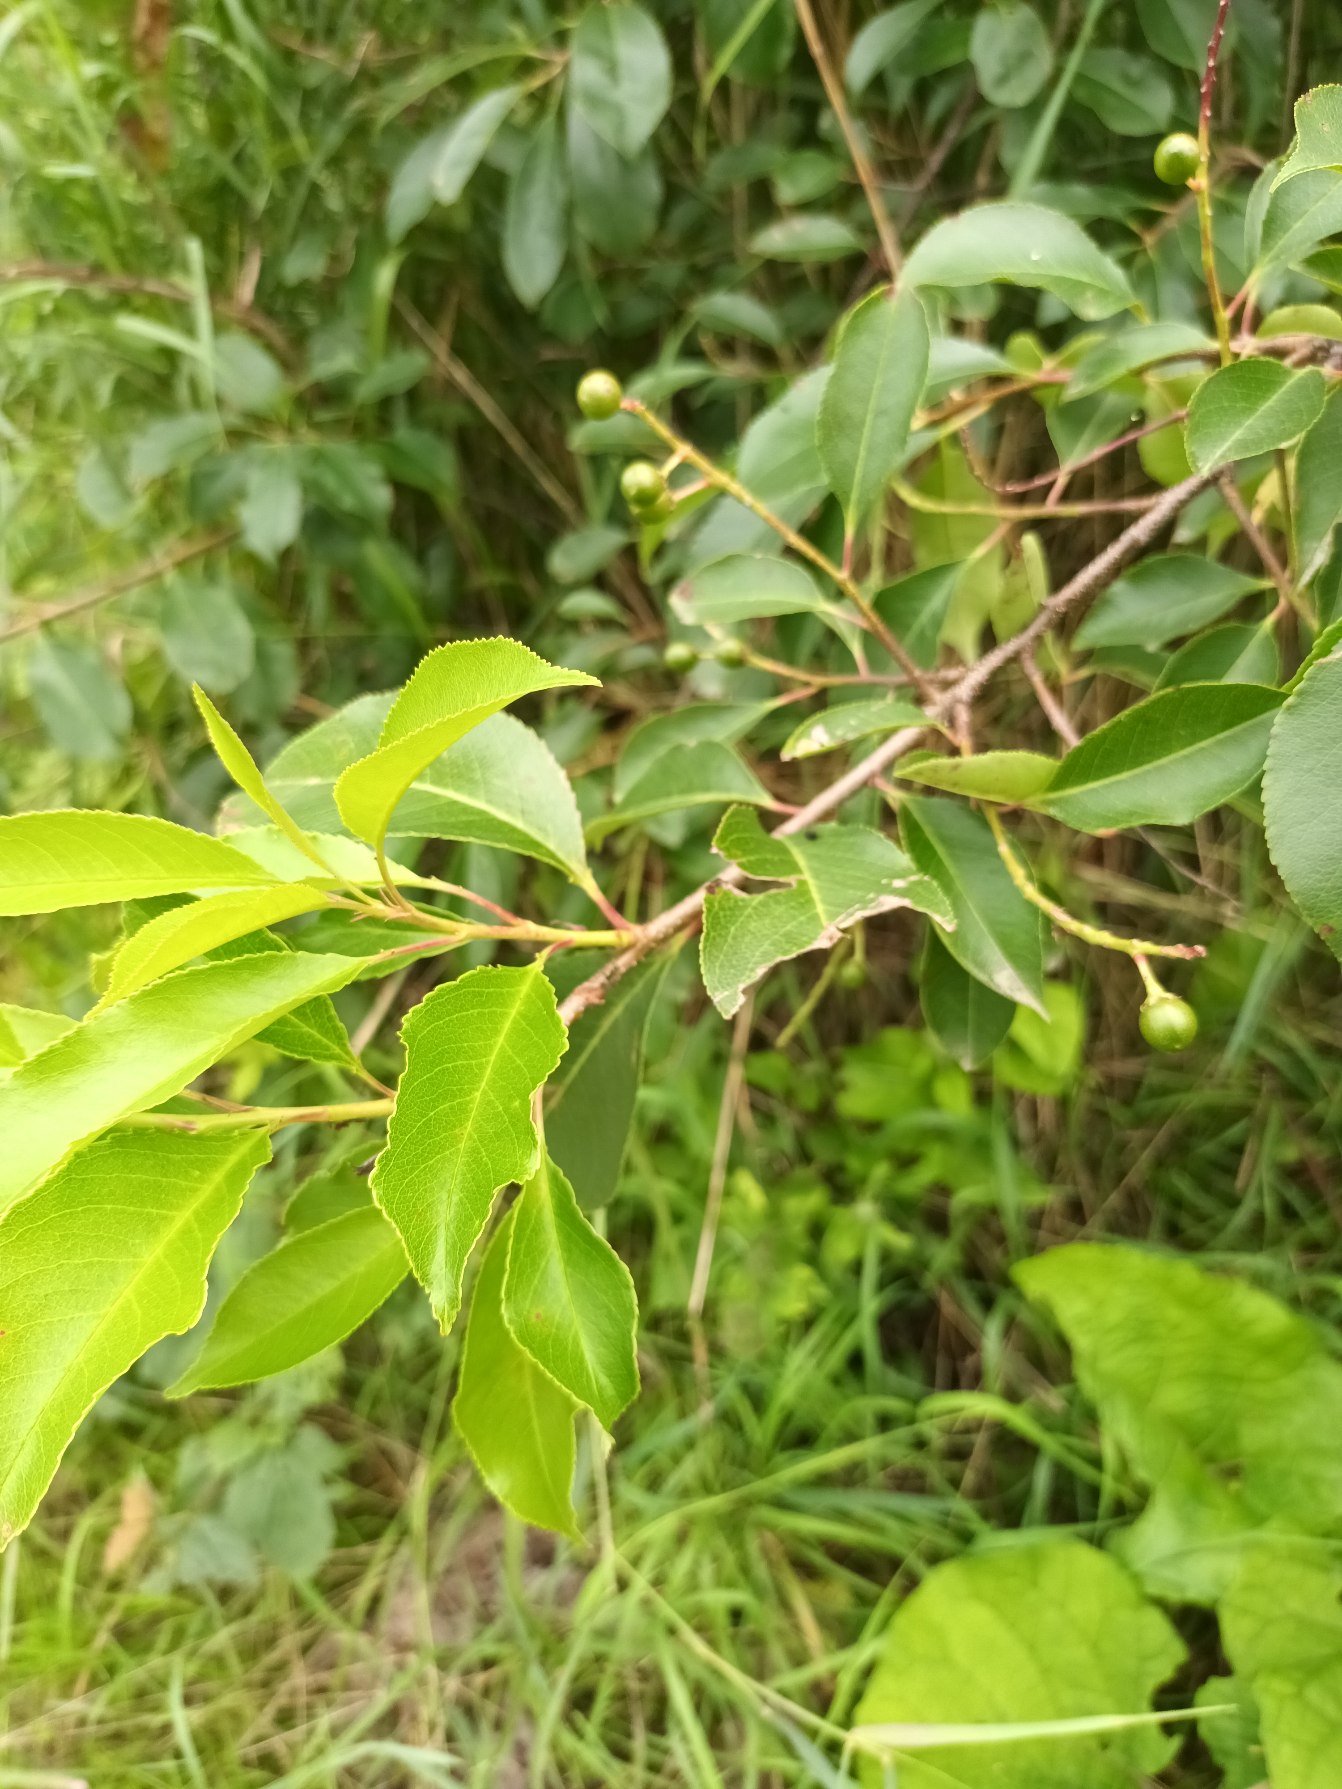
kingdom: Plantae
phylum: Tracheophyta
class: Magnoliopsida
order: Rosales
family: Rosaceae
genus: Prunus
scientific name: Prunus serotina
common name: Glansbladet hæg
